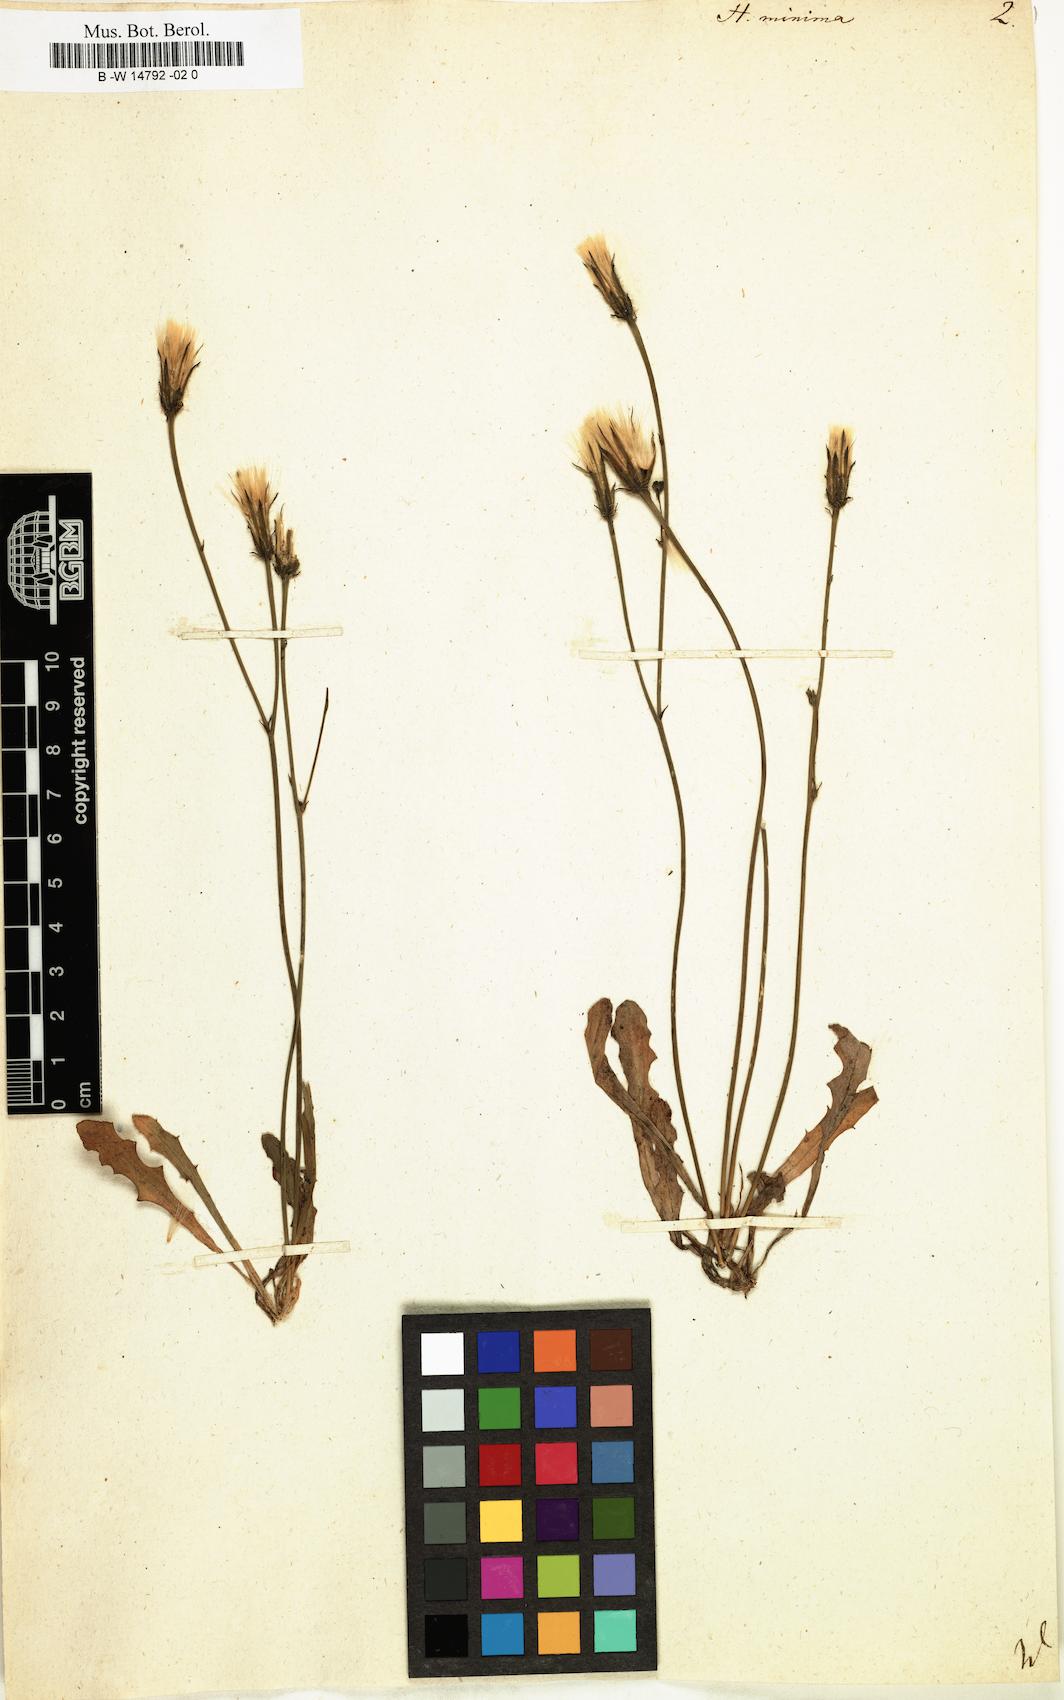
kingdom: Plantae
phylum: Tracheophyta
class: Magnoliopsida
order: Asterales
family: Asteraceae
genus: Hypochaeris
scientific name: Hypochaeris
